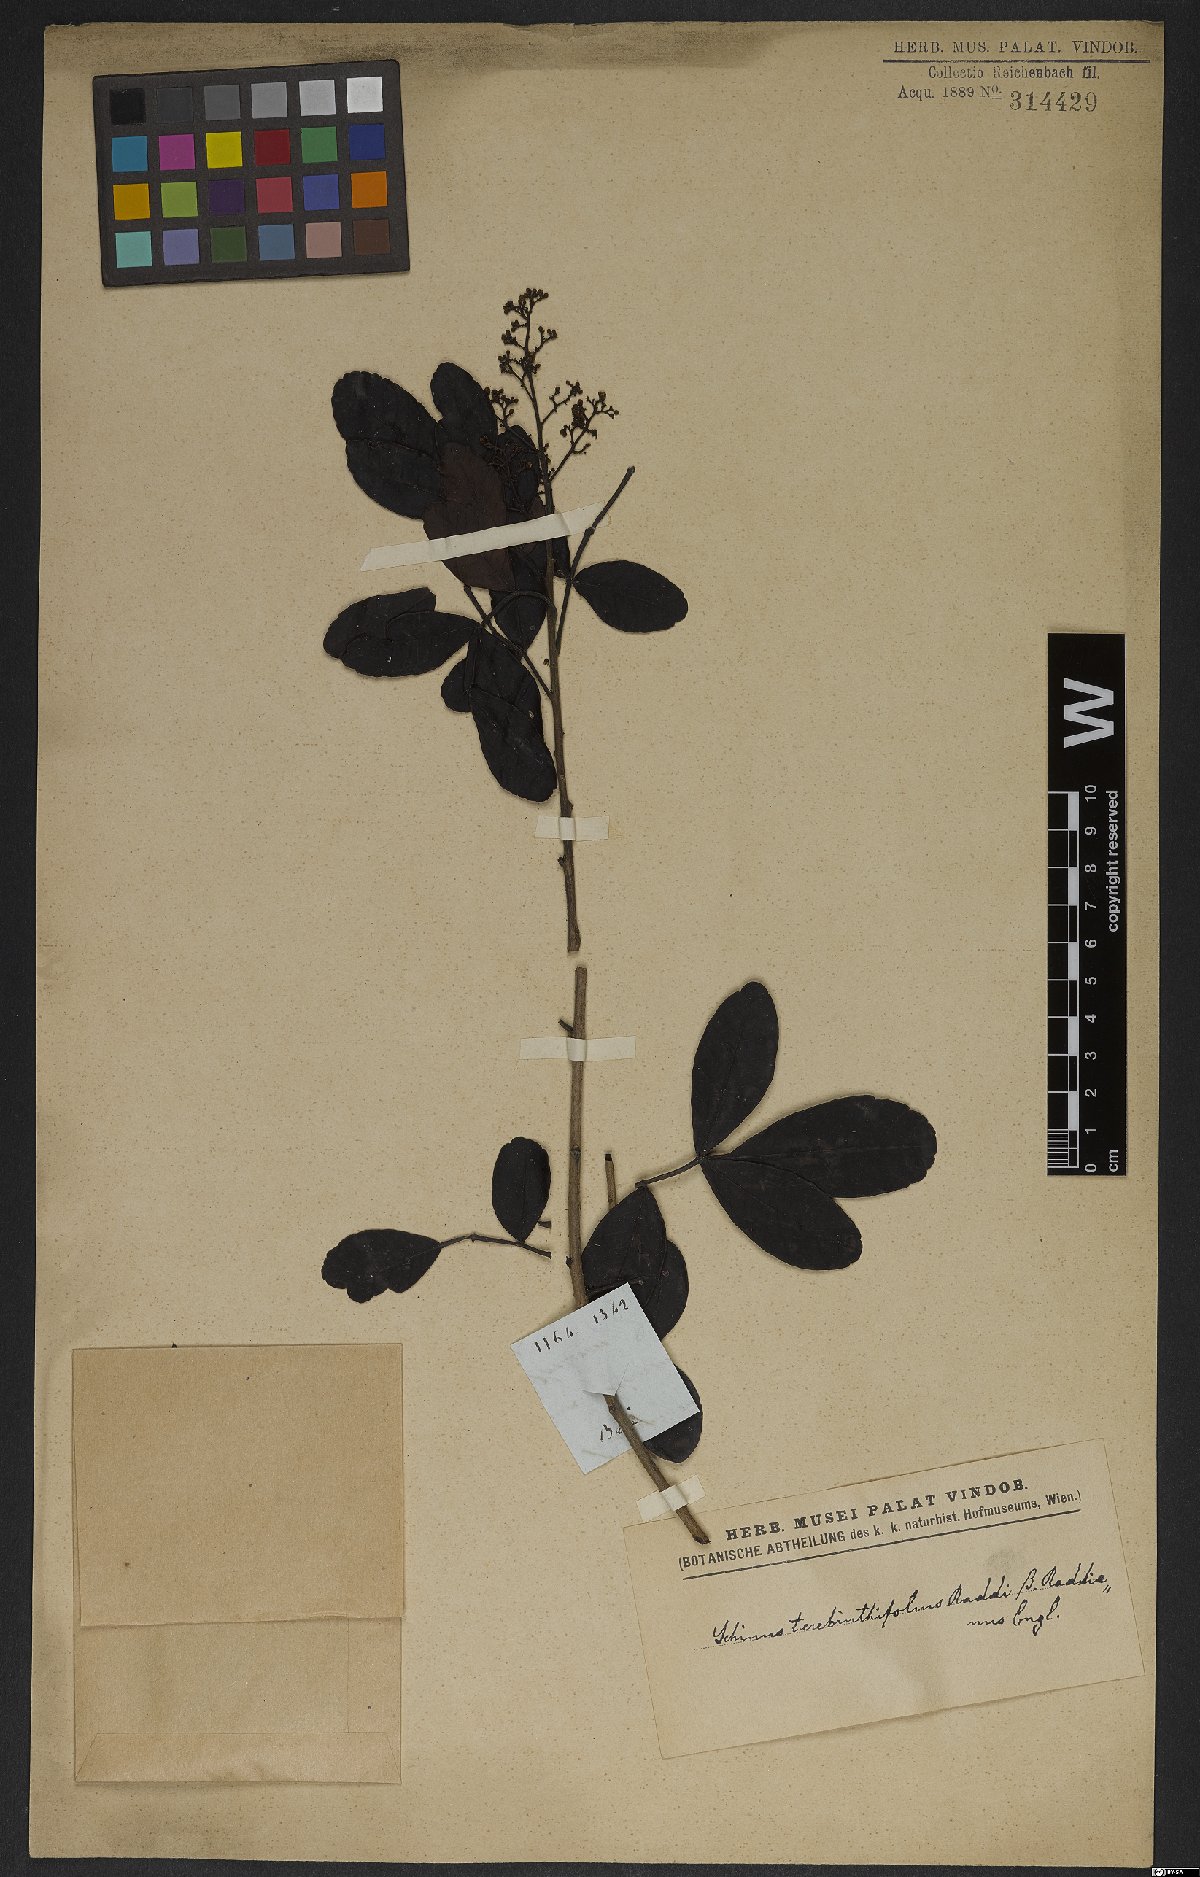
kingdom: Plantae
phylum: Tracheophyta
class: Magnoliopsida
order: Sapindales
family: Anacardiaceae
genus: Schinus
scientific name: Schinus terebinthifolia
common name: Brazilian peppertree
